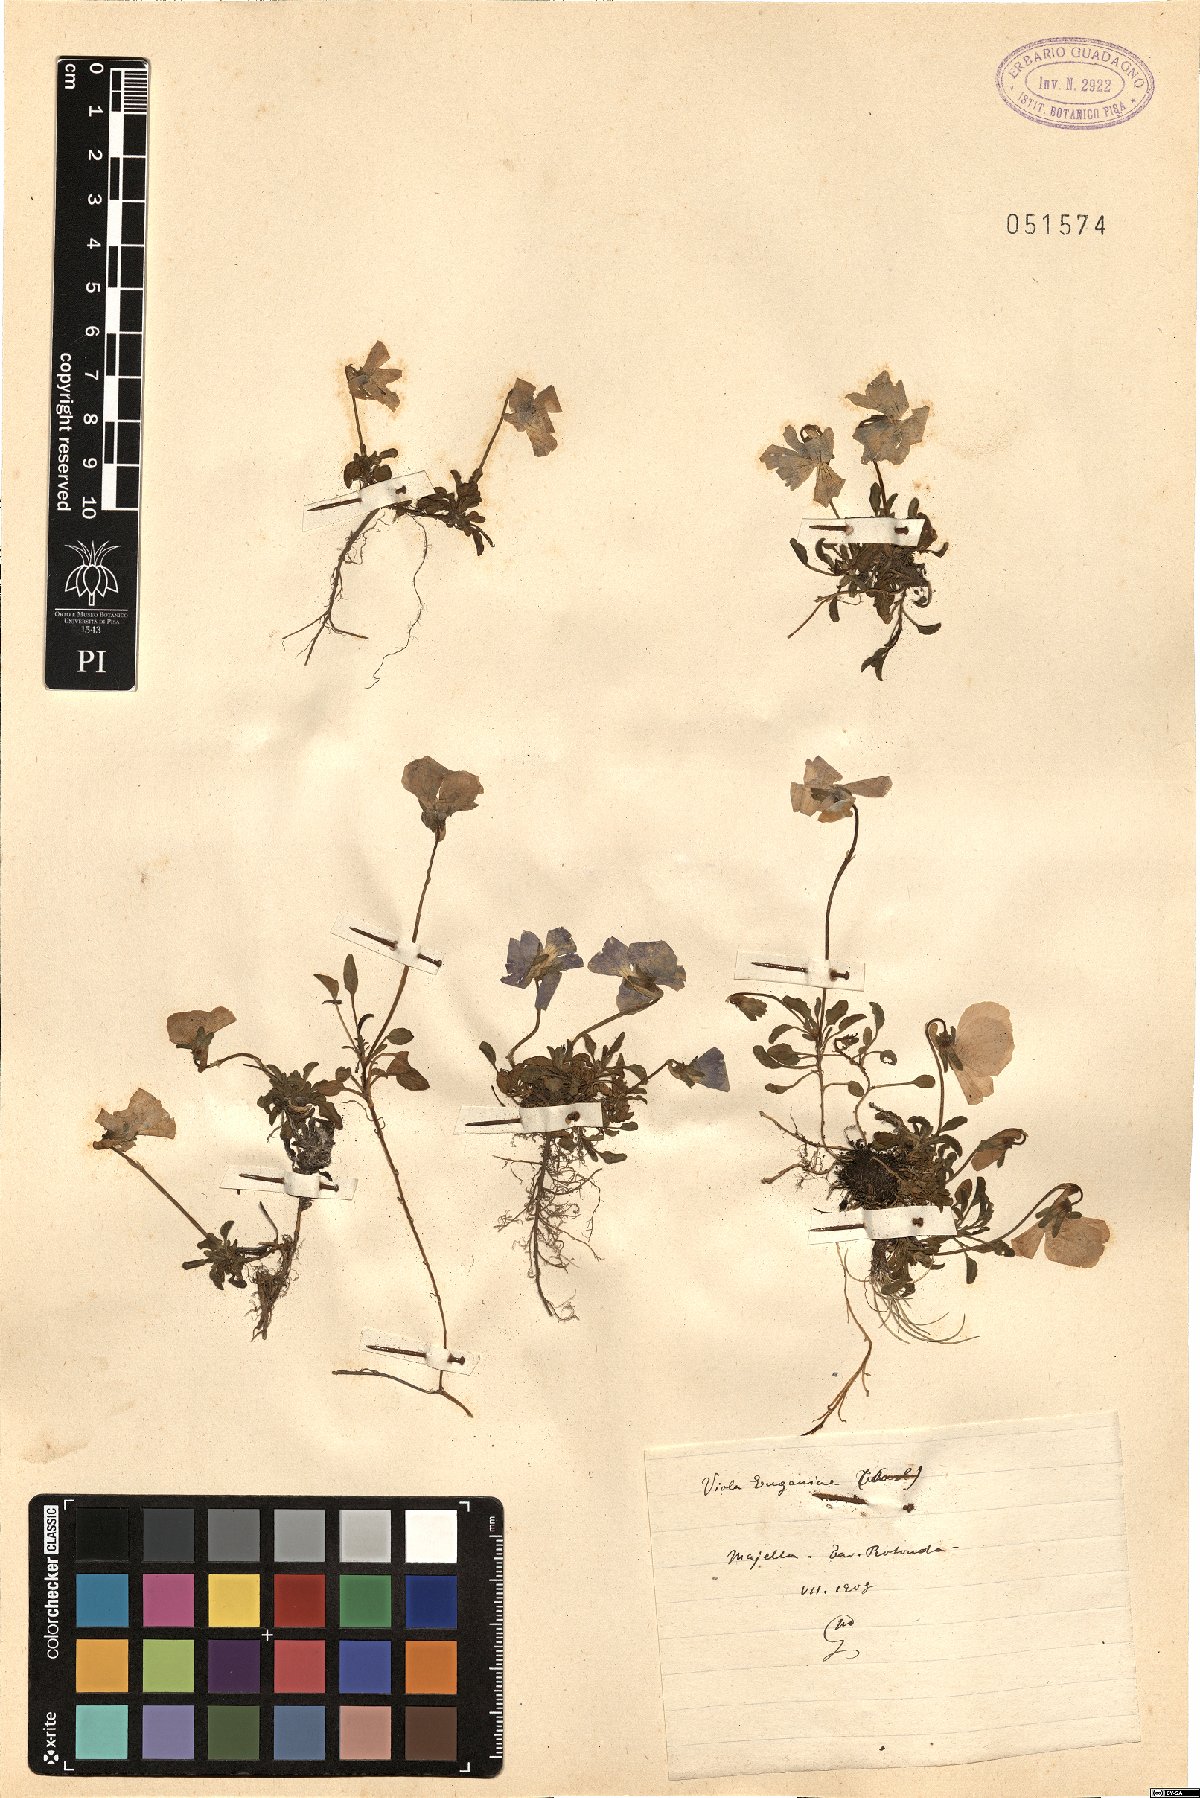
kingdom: Plantae
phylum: Tracheophyta
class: Magnoliopsida
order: Malpighiales
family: Violaceae
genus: Viola
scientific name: Viola eugeniae
